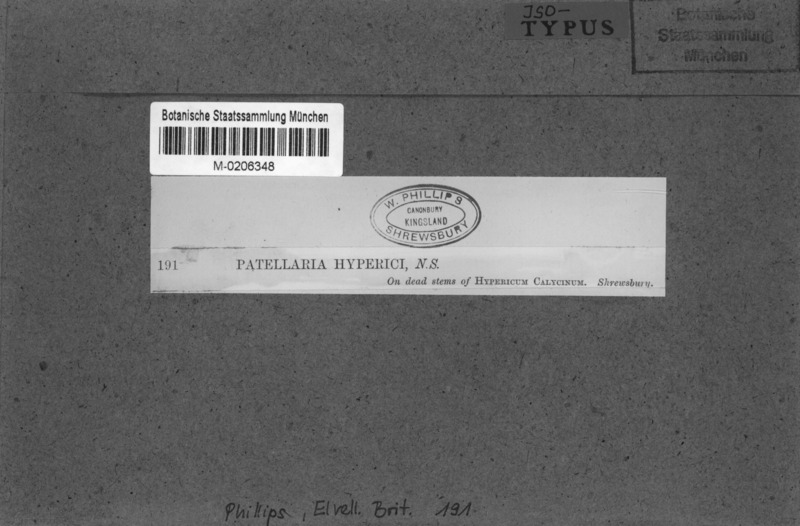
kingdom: Fungi
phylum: Ascomycota
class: Dothideomycetes
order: Pleosporales
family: Lentitheciaceae
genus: Keissleriella
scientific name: Keissleriella ocellata
